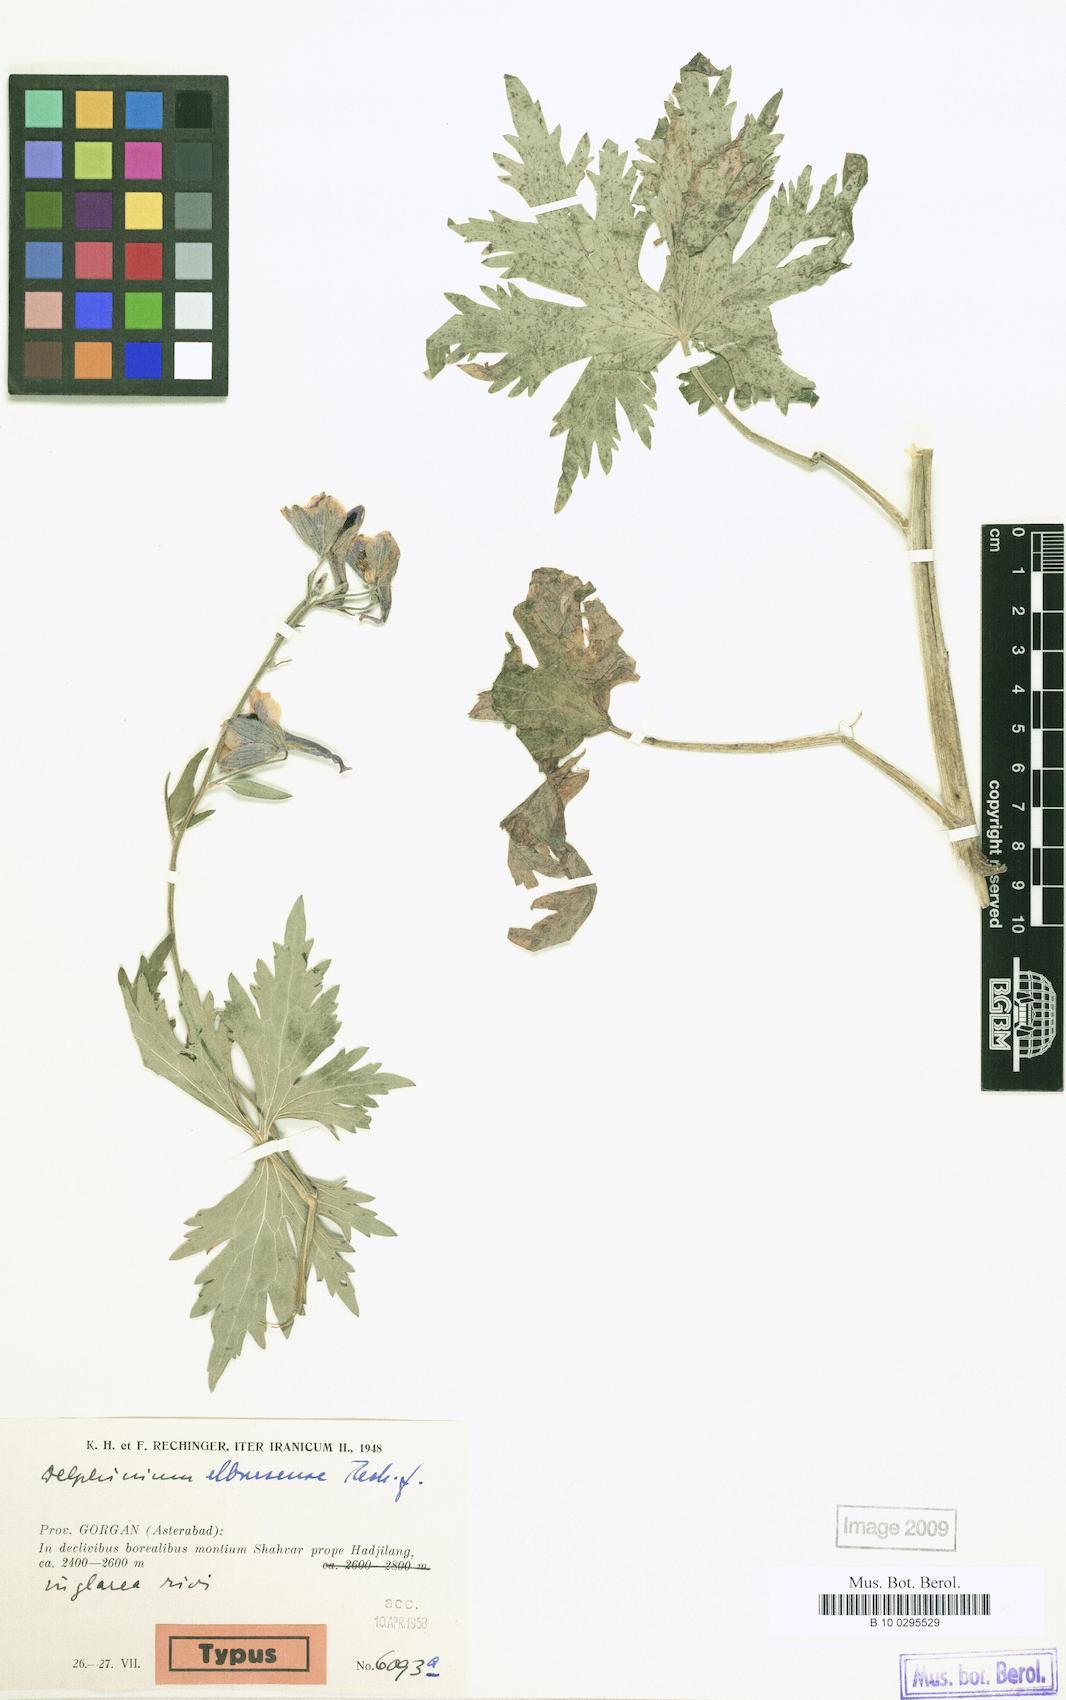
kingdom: Plantae
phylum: Tracheophyta
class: Magnoliopsida
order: Ranunculales
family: Ranunculaceae
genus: Delphinium
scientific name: Delphinium elbursense
